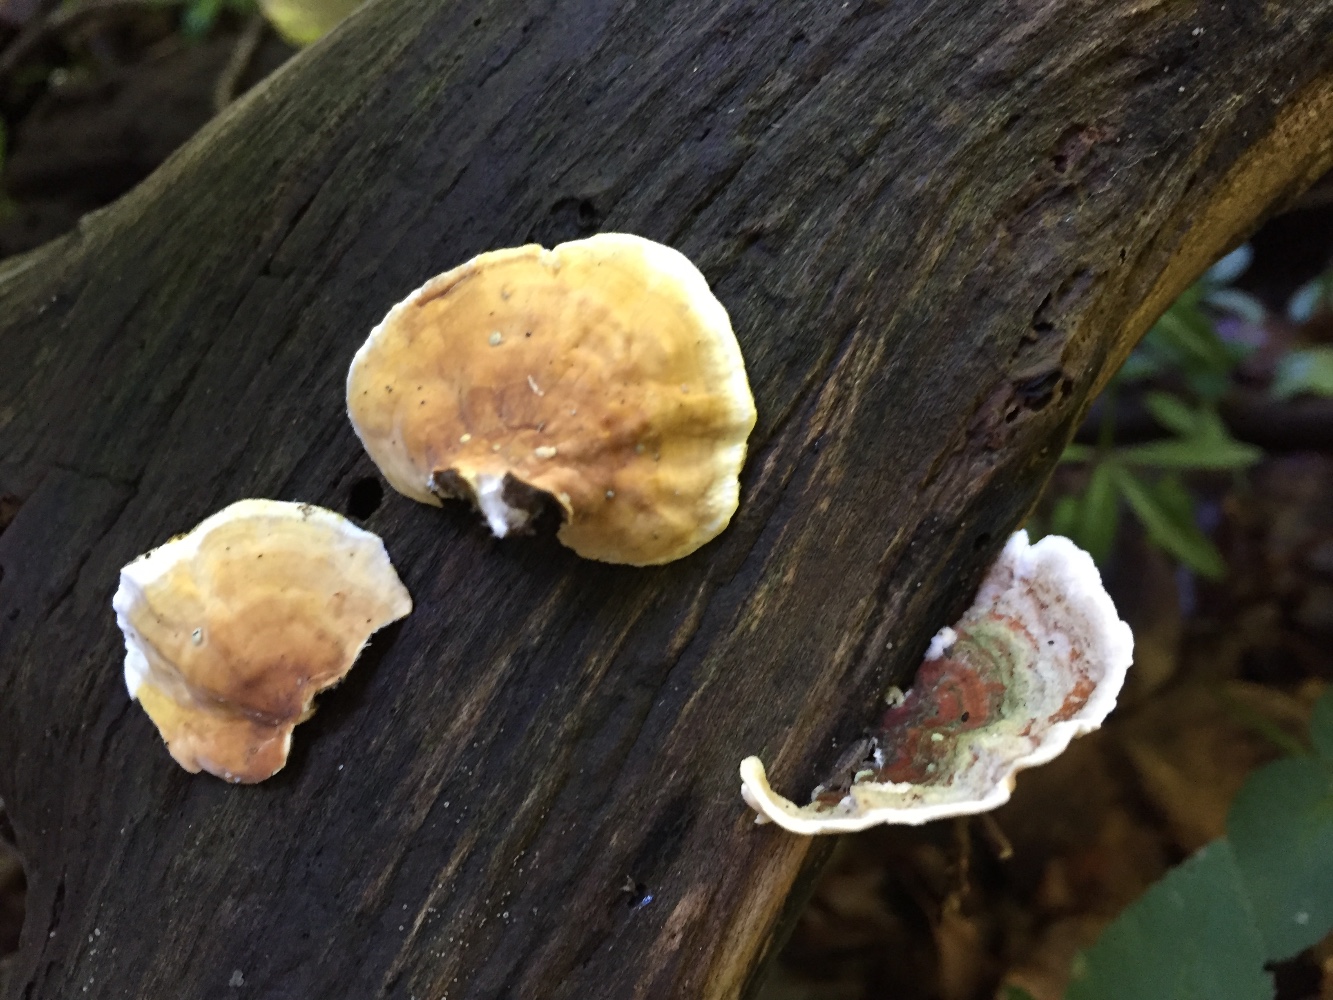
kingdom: Fungi
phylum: Basidiomycota
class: Agaricomycetes
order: Russulales
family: Stereaceae
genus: Stereum
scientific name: Stereum subtomentosum
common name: smuk lædersvamp
